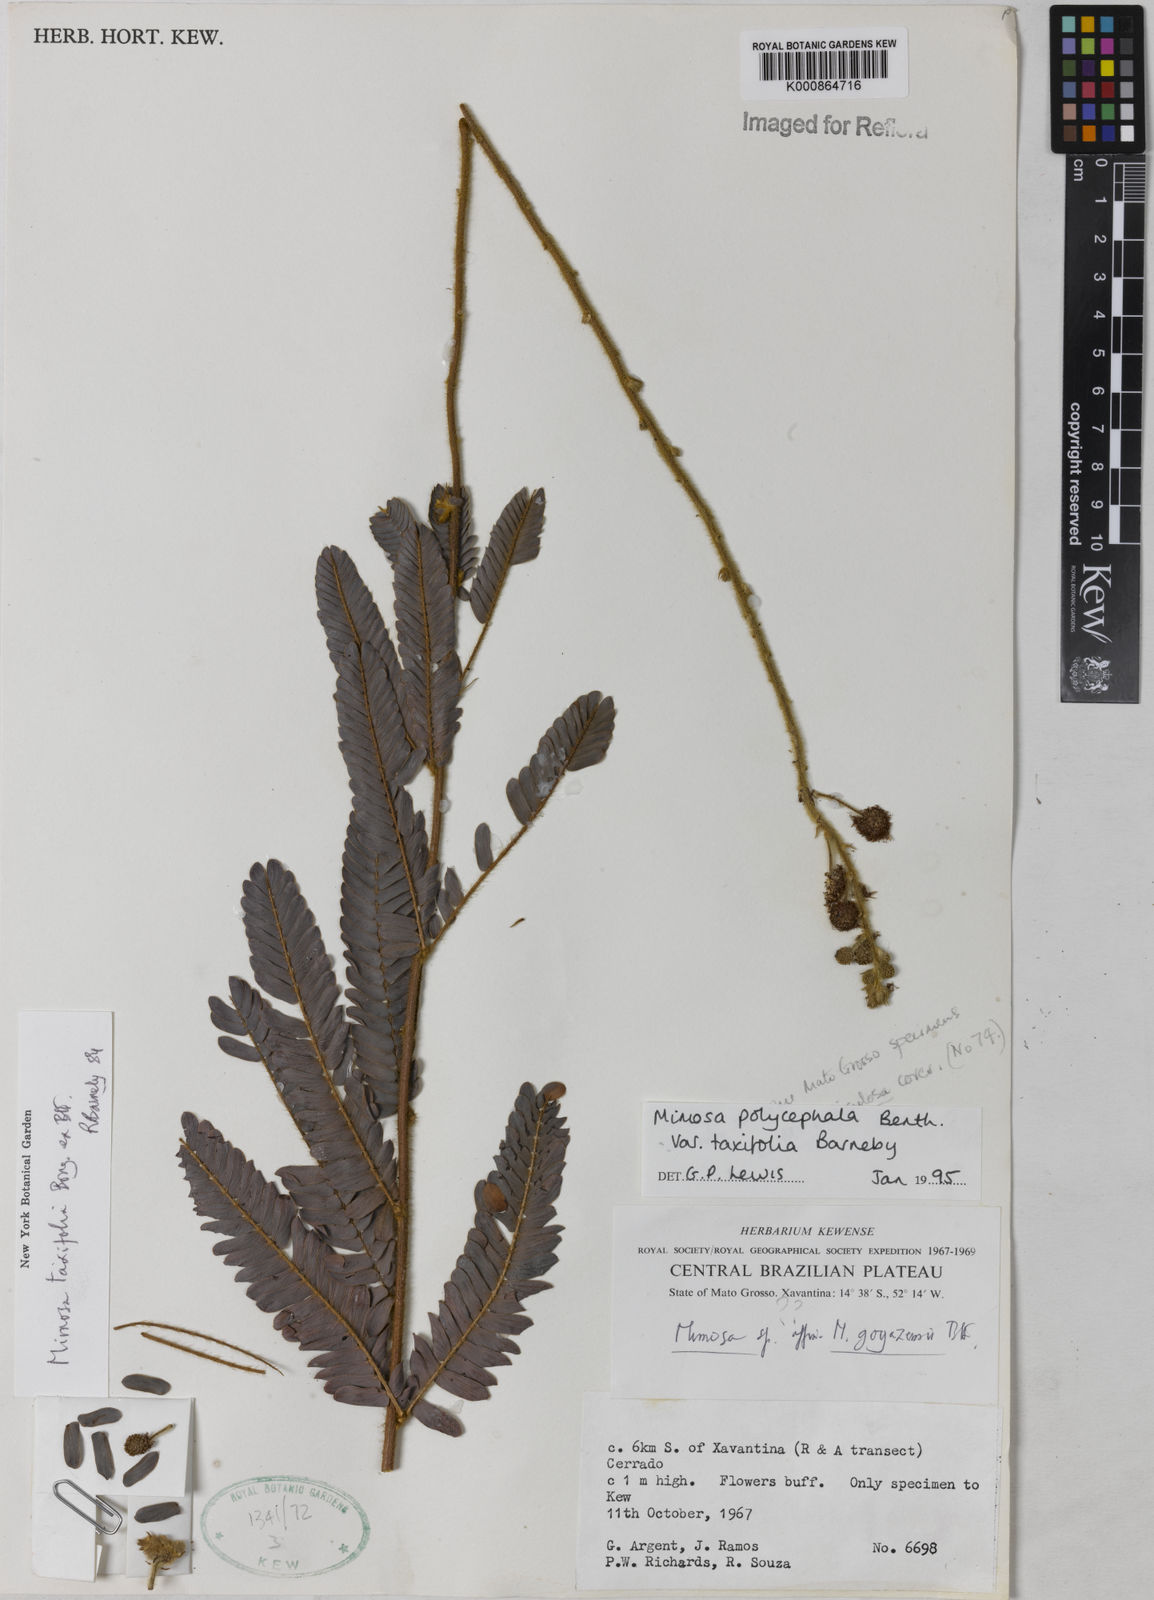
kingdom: Plantae
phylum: Tracheophyta
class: Magnoliopsida
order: Fabales
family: Fabaceae
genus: Mimosa
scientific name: Mimosa polycephala
